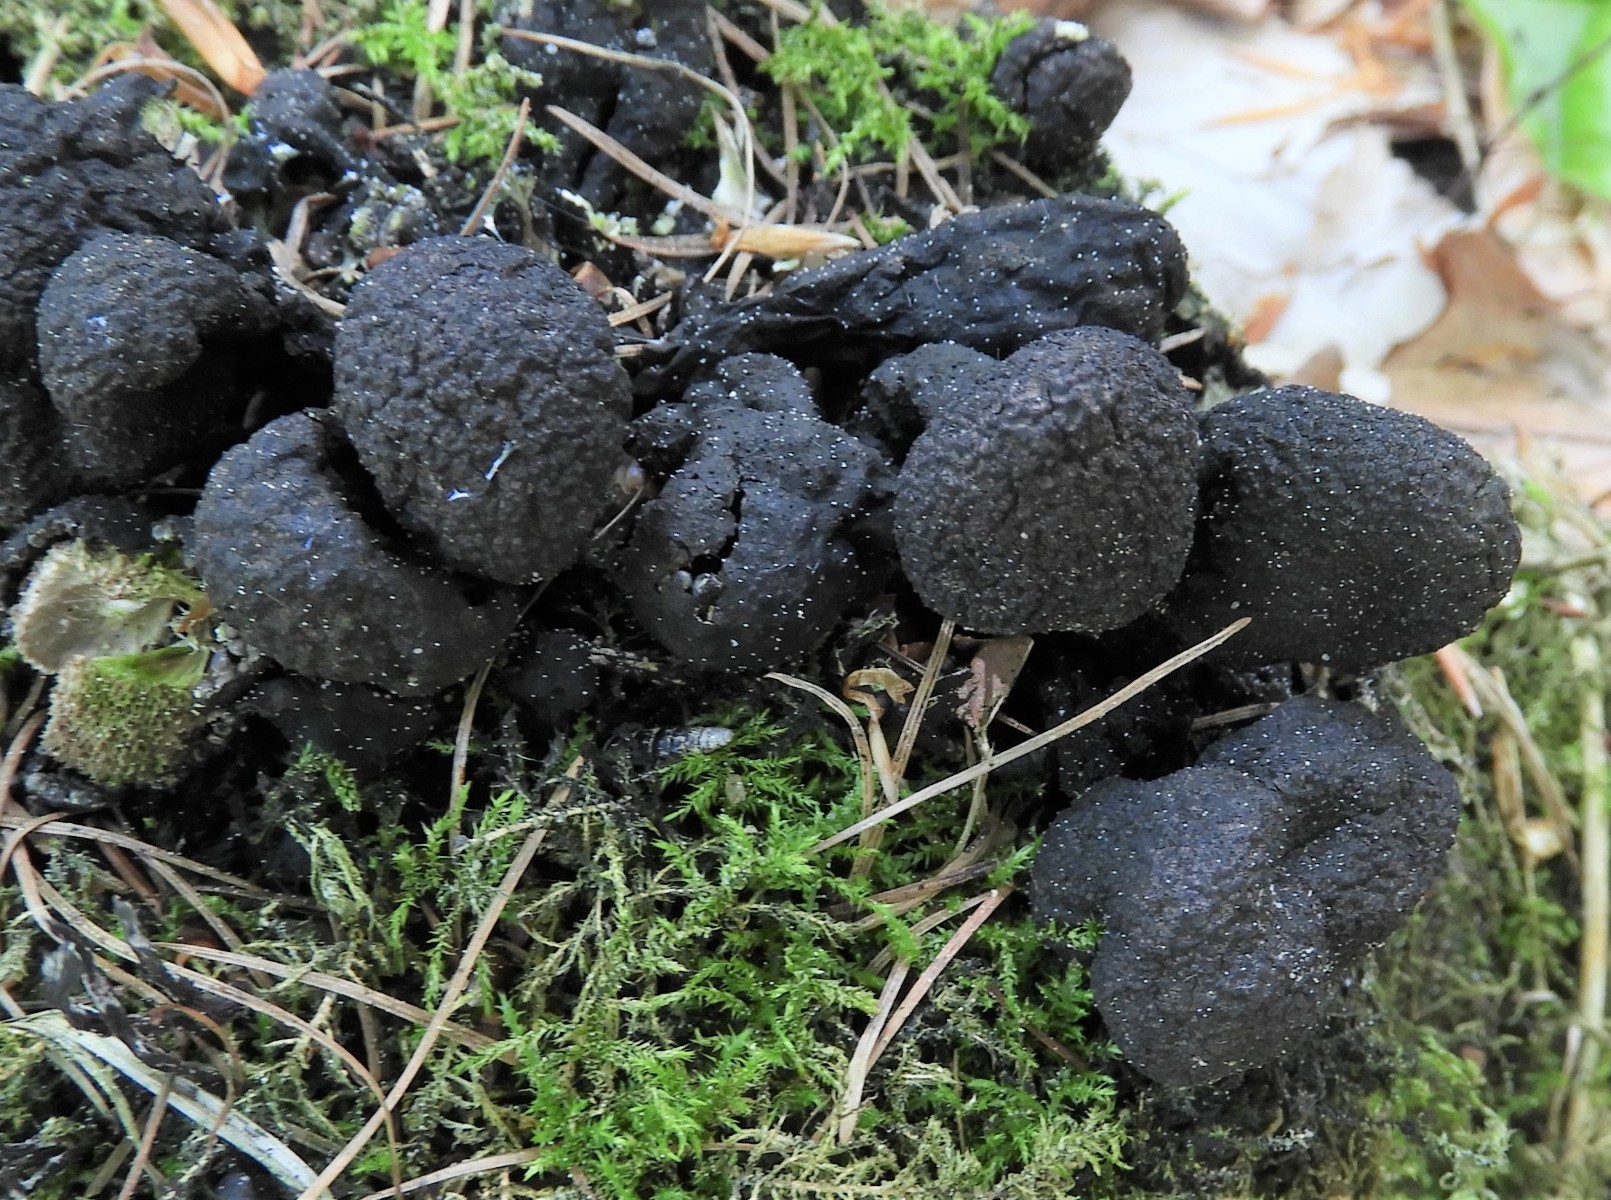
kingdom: Fungi
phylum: Ascomycota
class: Sordariomycetes
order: Xylariales
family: Xylariaceae
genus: Xylaria
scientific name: Xylaria polymorpha
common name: kølle-stødsvamp
